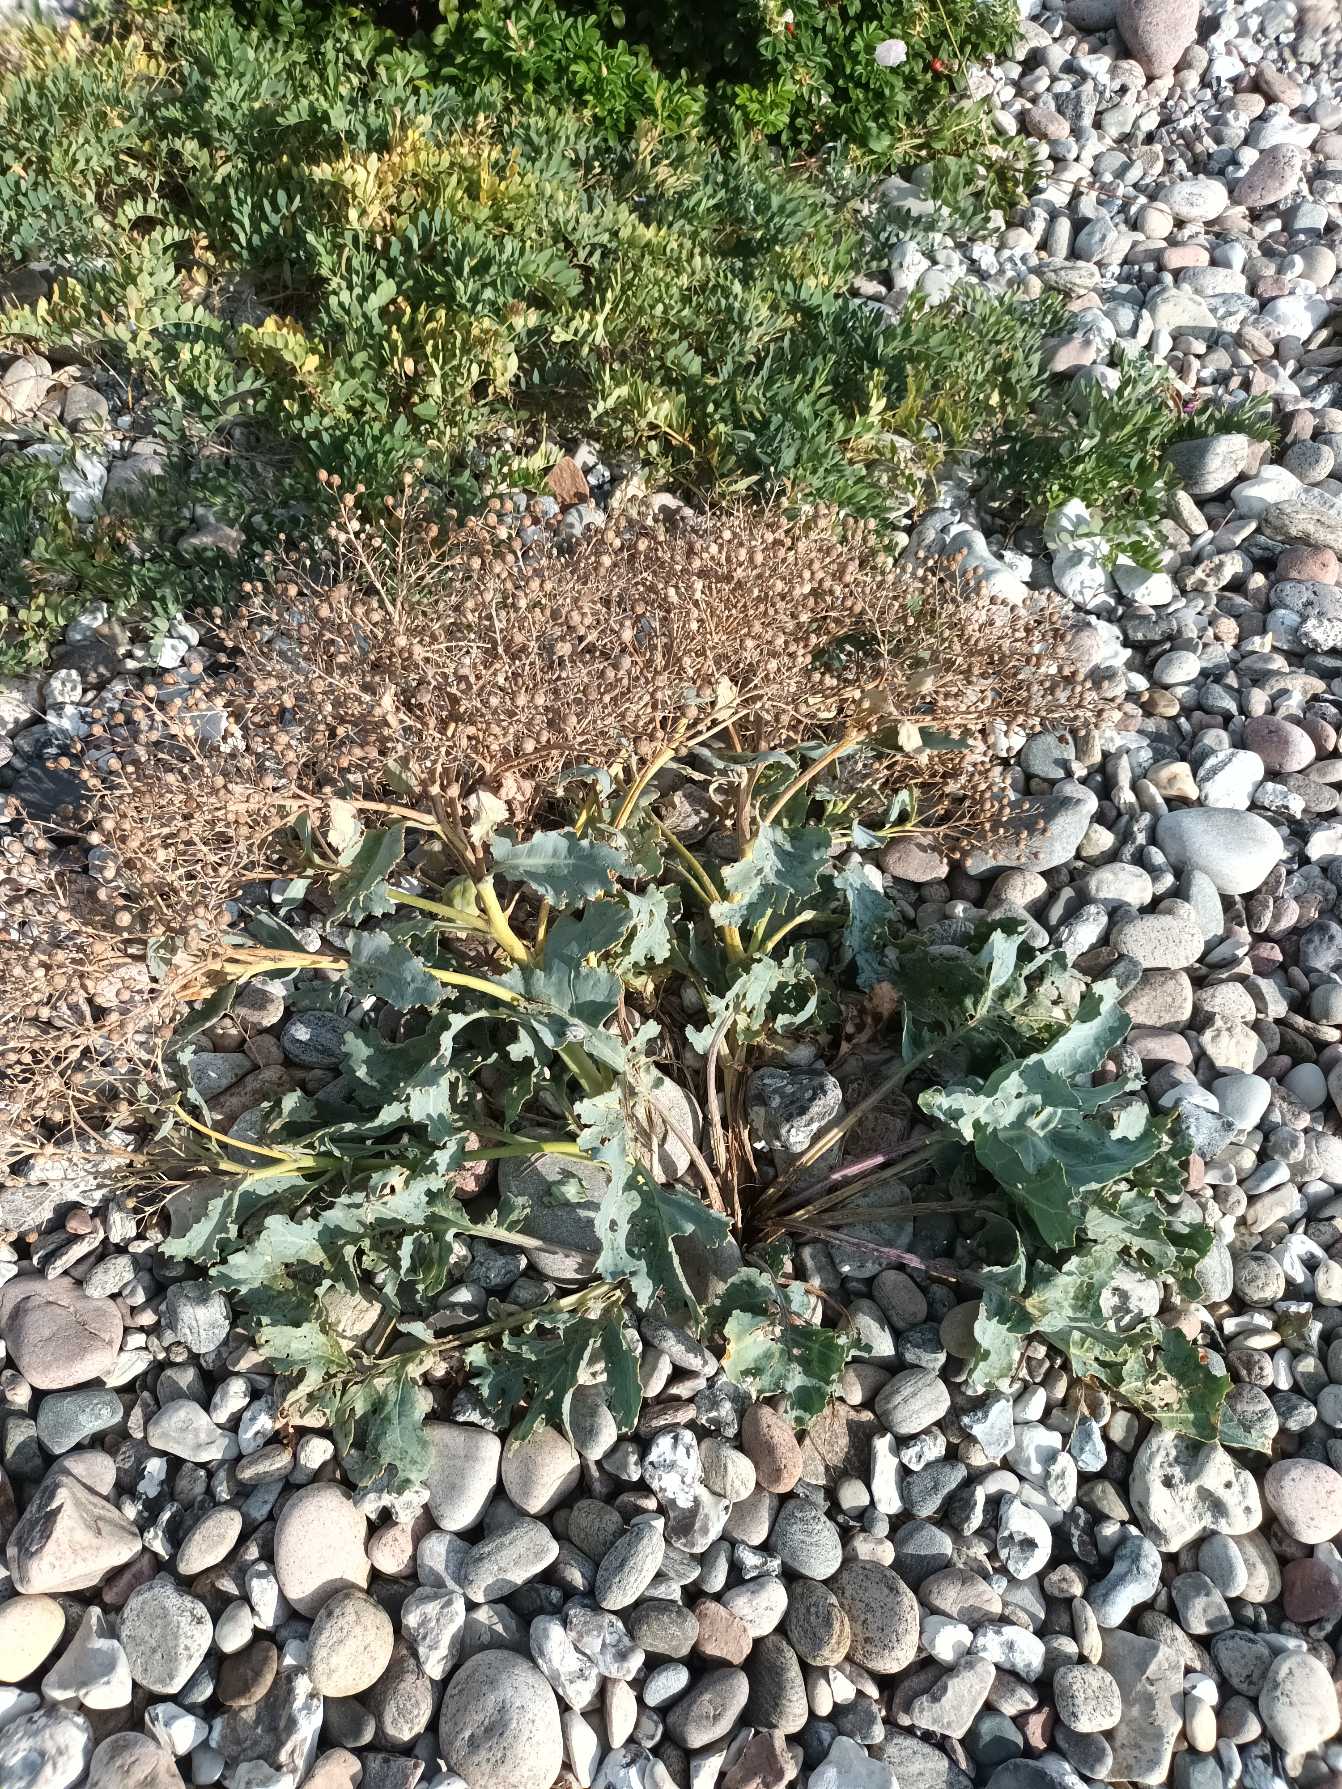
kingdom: Plantae
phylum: Tracheophyta
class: Magnoliopsida
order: Brassicales
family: Brassicaceae
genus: Crambe
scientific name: Crambe maritima
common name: Strandkål
